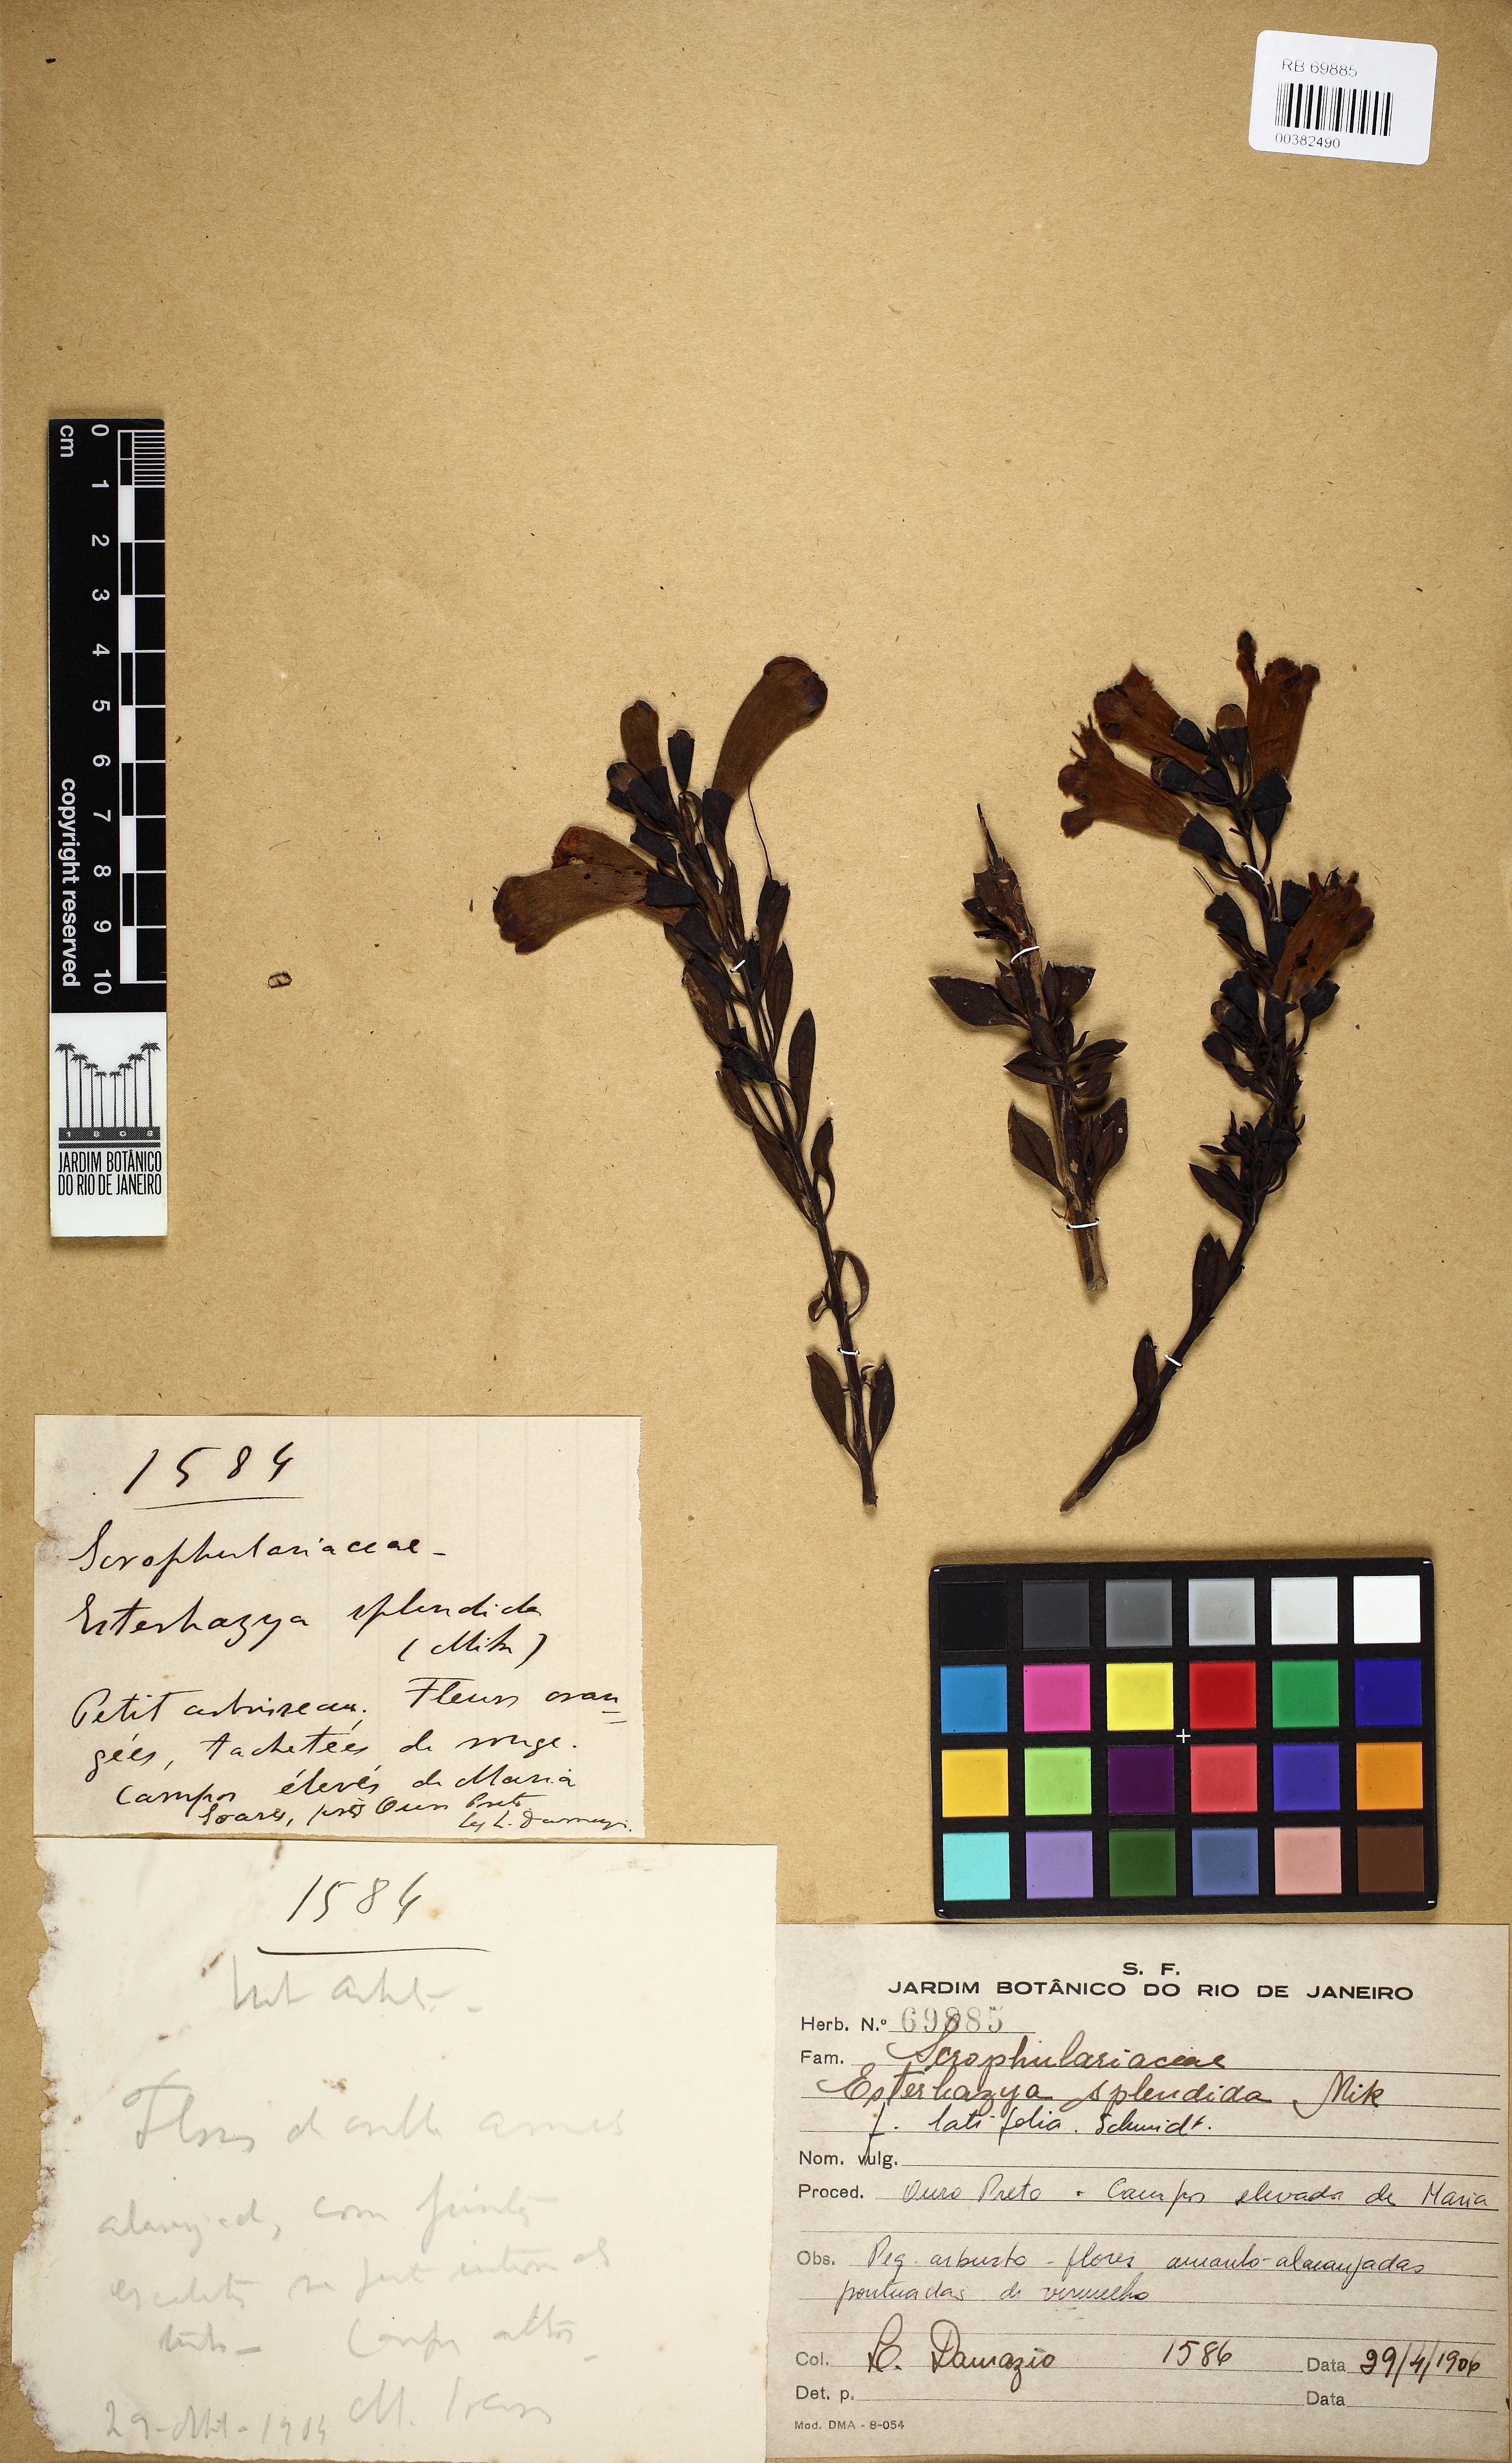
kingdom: Plantae
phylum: Tracheophyta
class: Magnoliopsida
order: Lamiales
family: Orobanchaceae
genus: Esterhazya
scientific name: Esterhazya splendida
